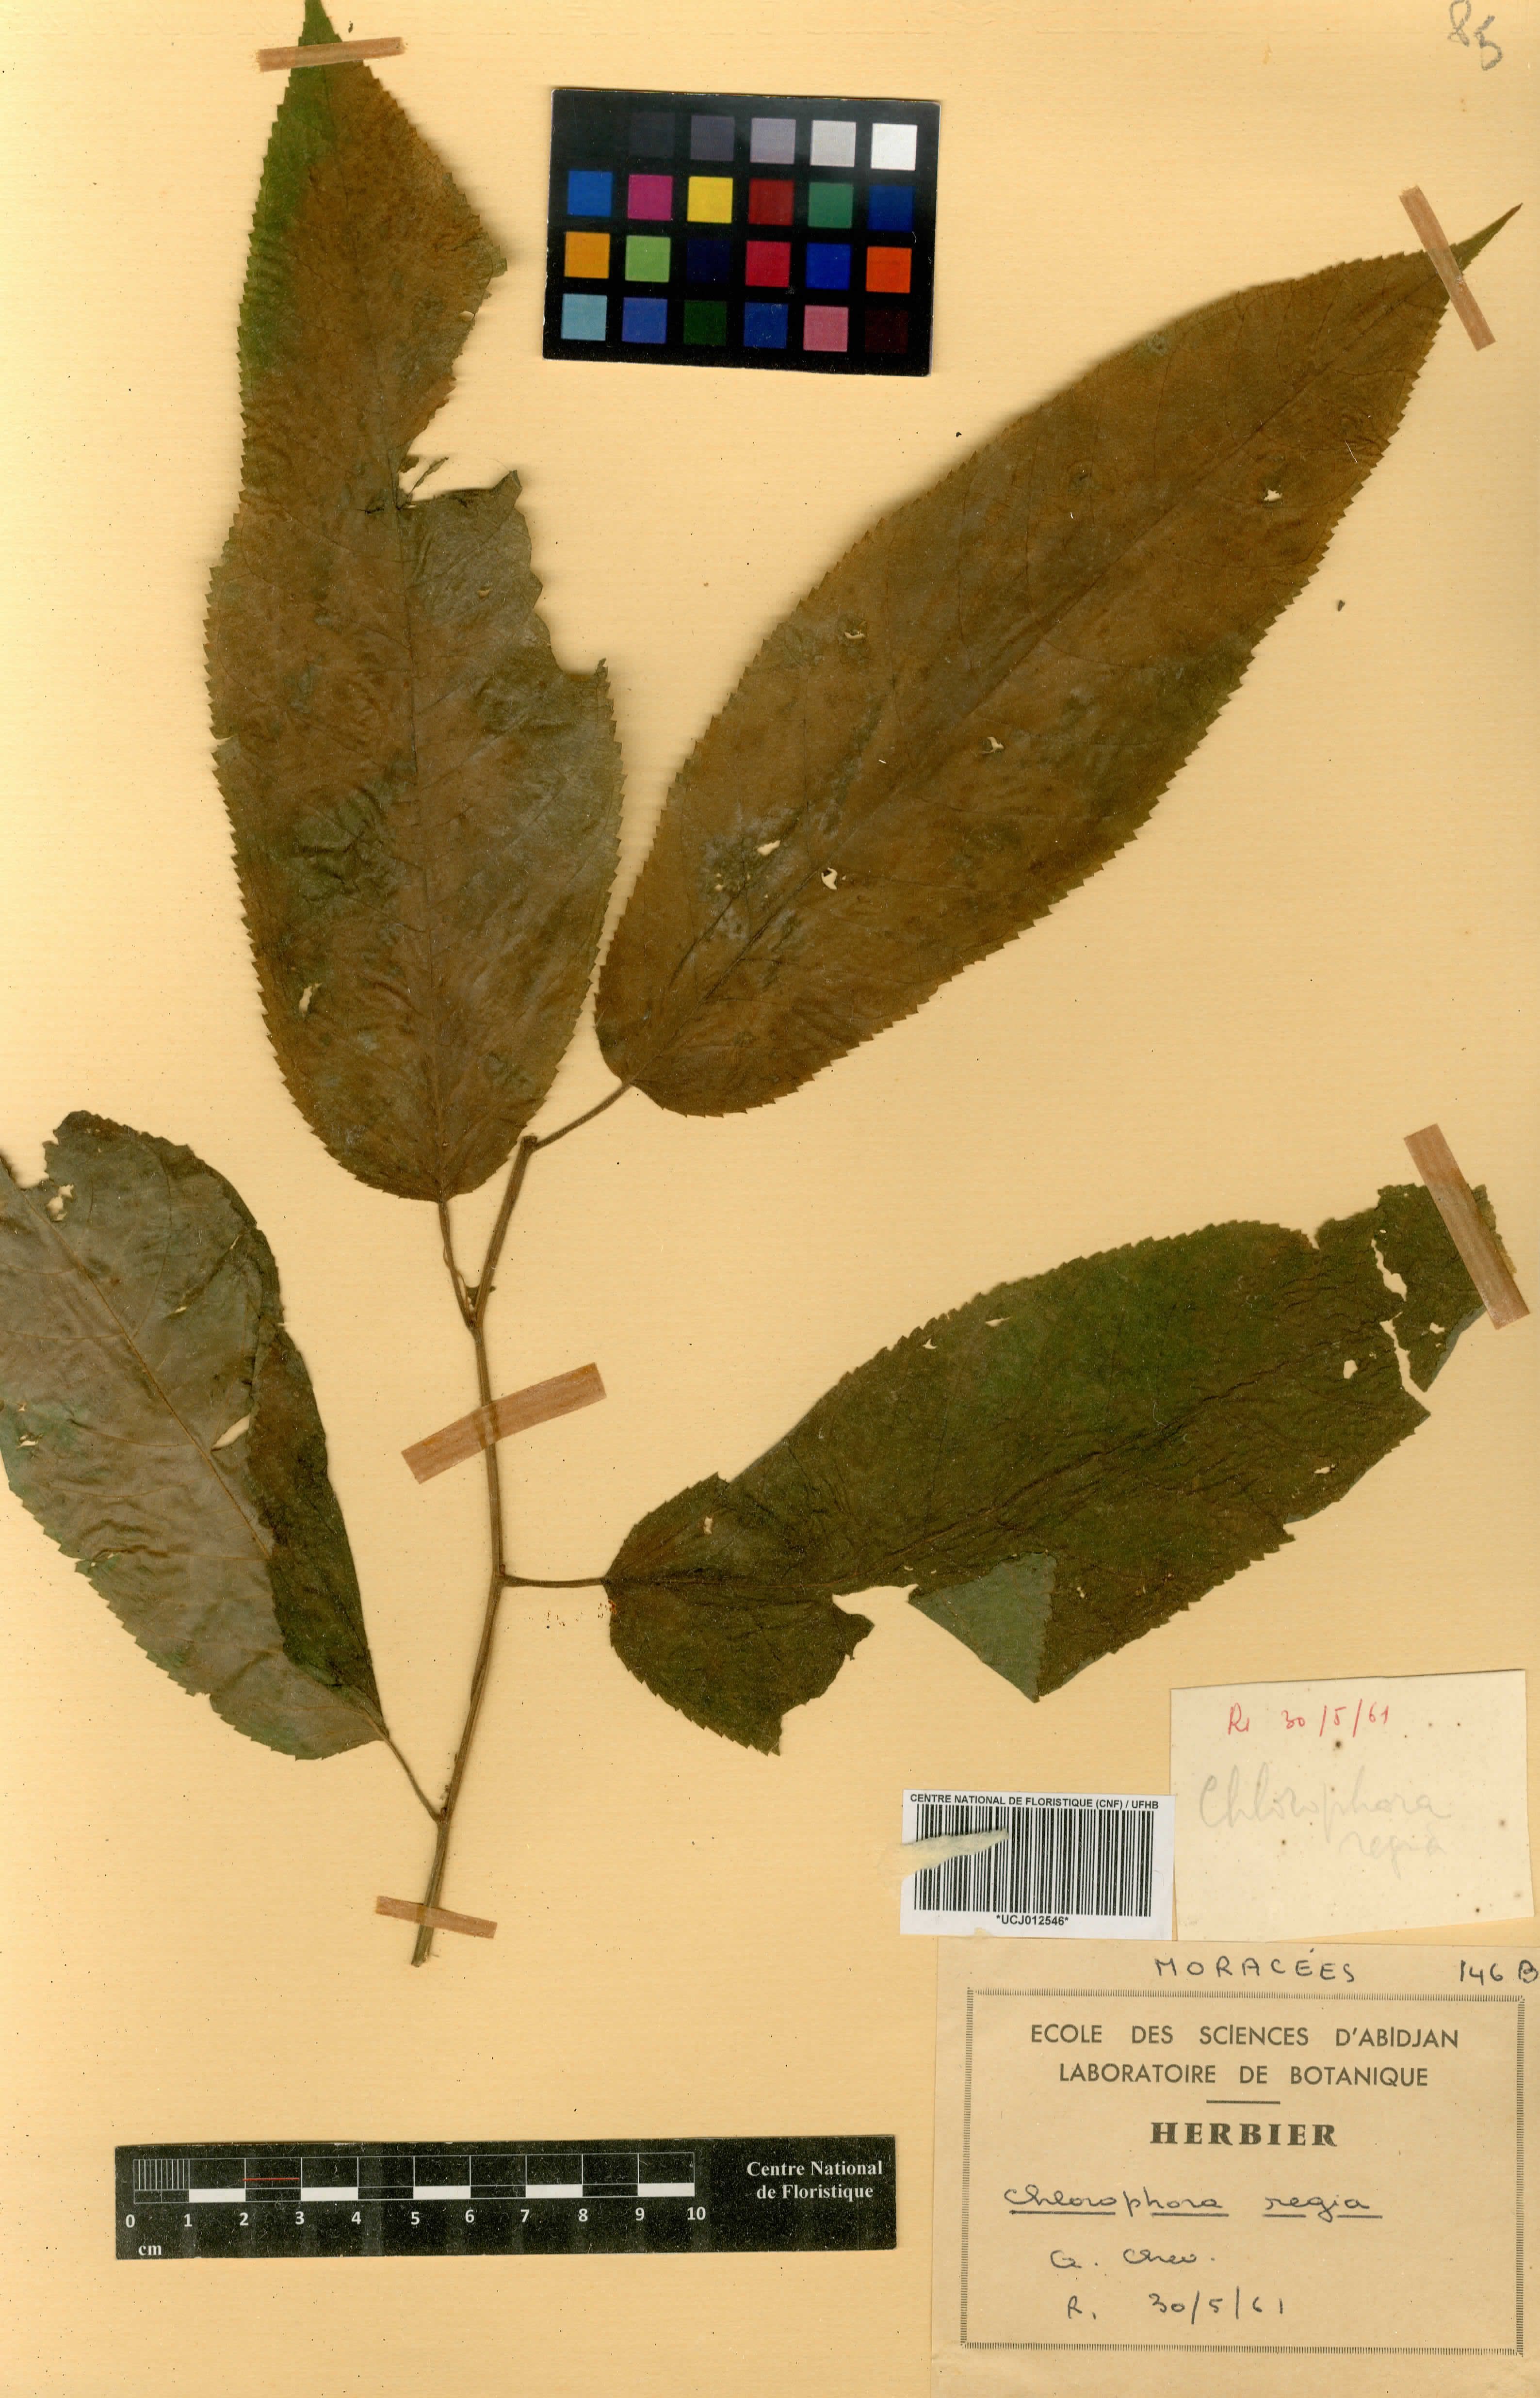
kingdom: Plantae
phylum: Tracheophyta
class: Magnoliopsida
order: Rosales
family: Moraceae
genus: Milicia
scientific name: Milicia regia
